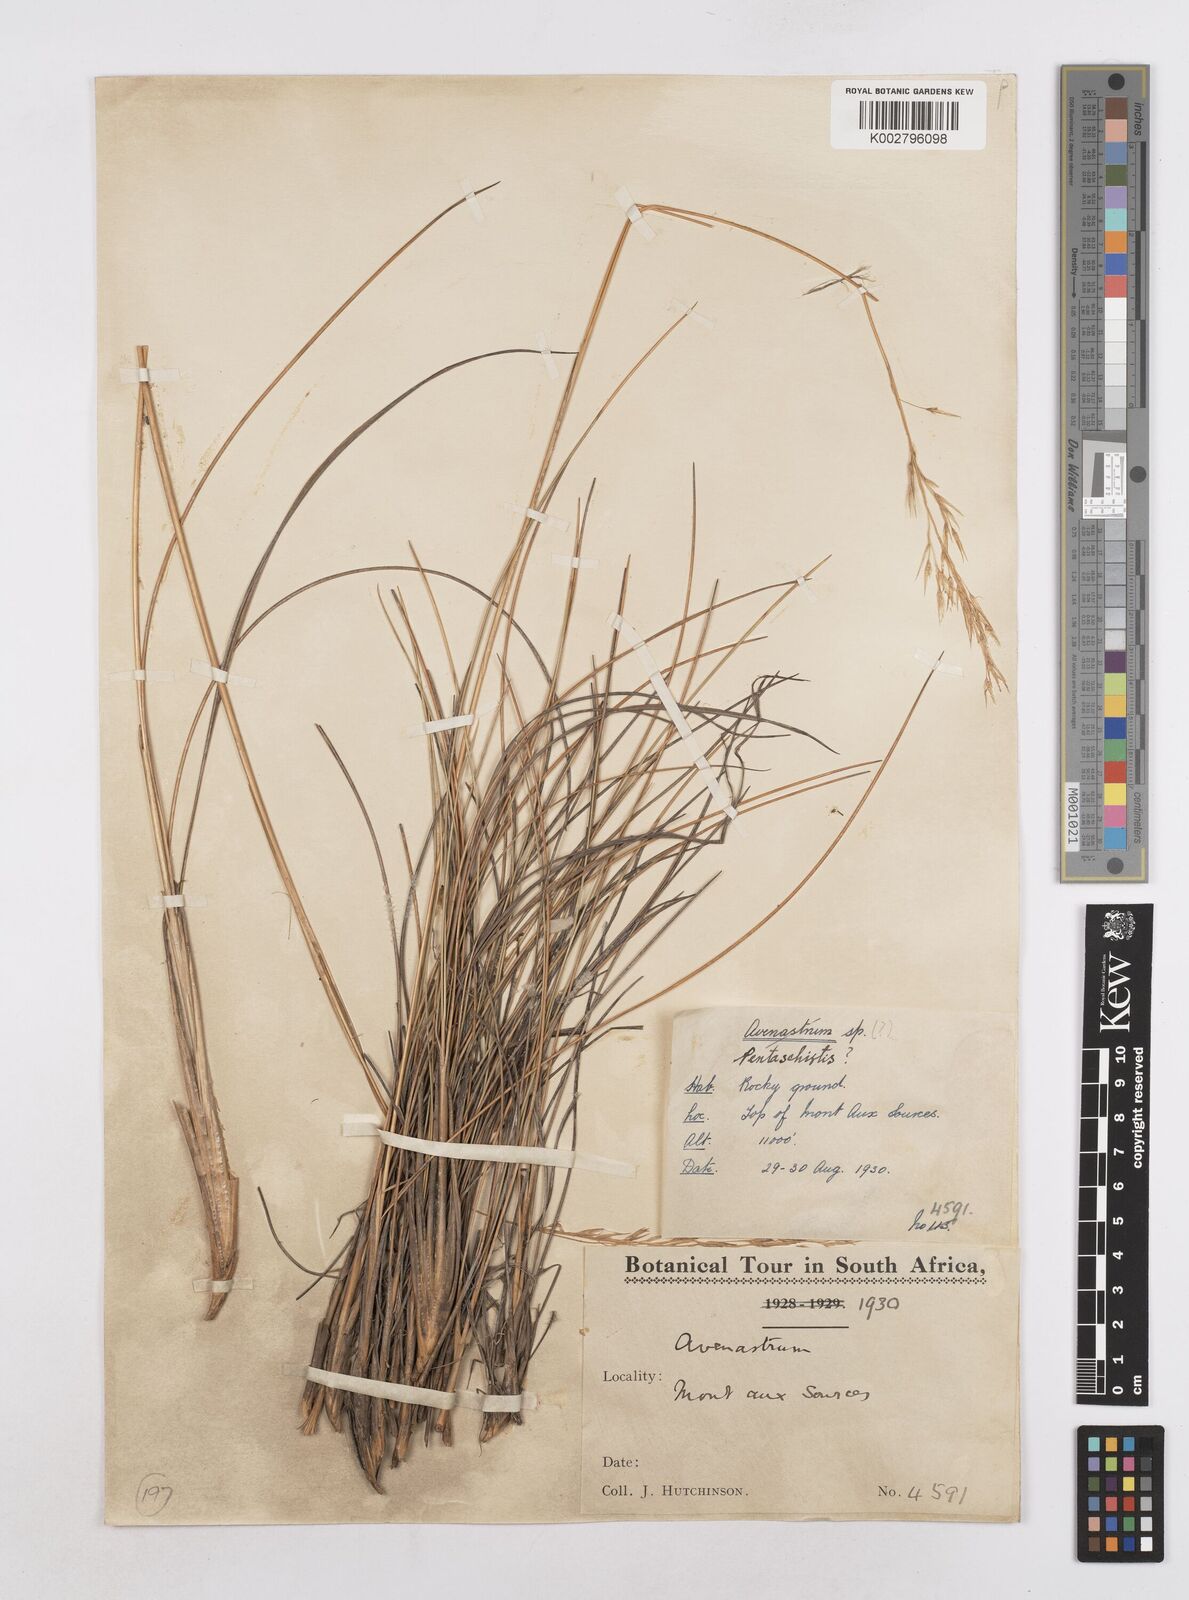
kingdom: Plantae
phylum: Tracheophyta
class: Liliopsida
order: Poales
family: Poaceae
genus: Trisetopsis
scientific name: Trisetopsis longifolia
